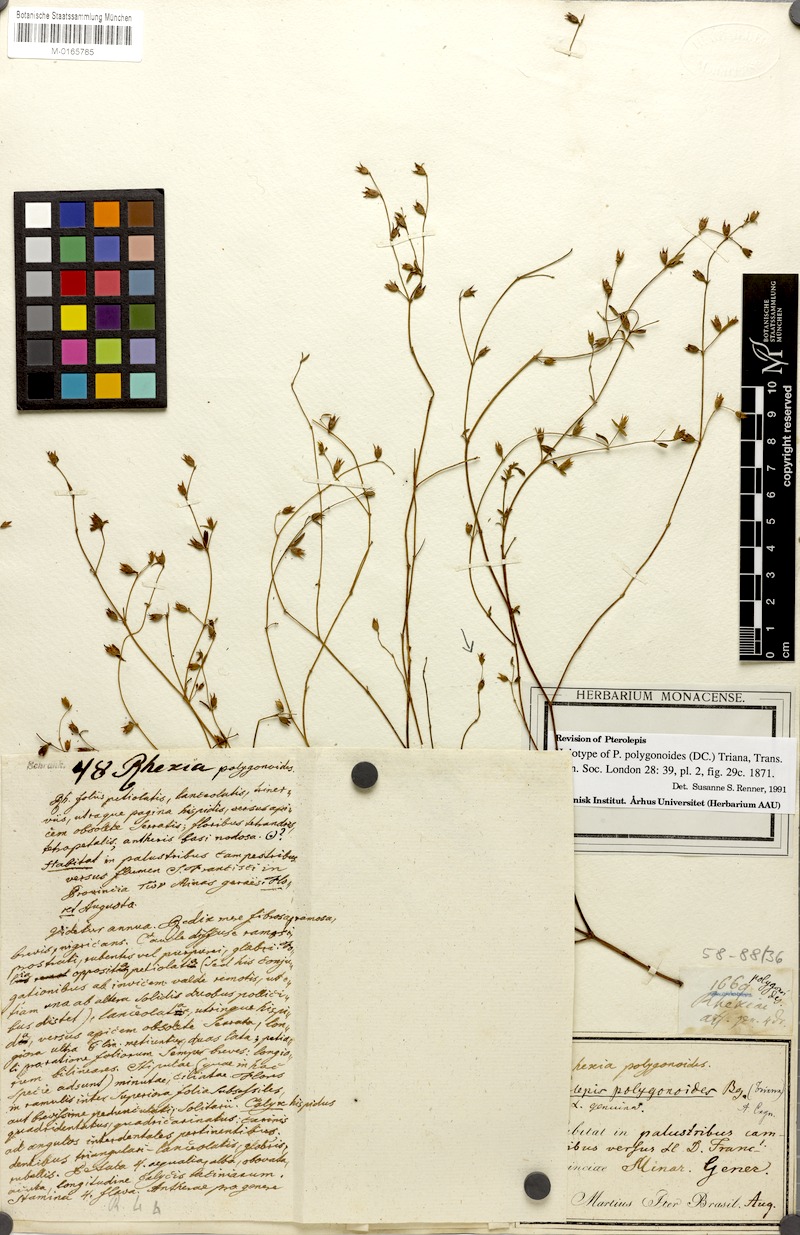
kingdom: Plantae
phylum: Tracheophyta
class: Magnoliopsida
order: Myrtales
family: Melastomataceae
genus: Pterolepis
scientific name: Pterolepis polygonoides
